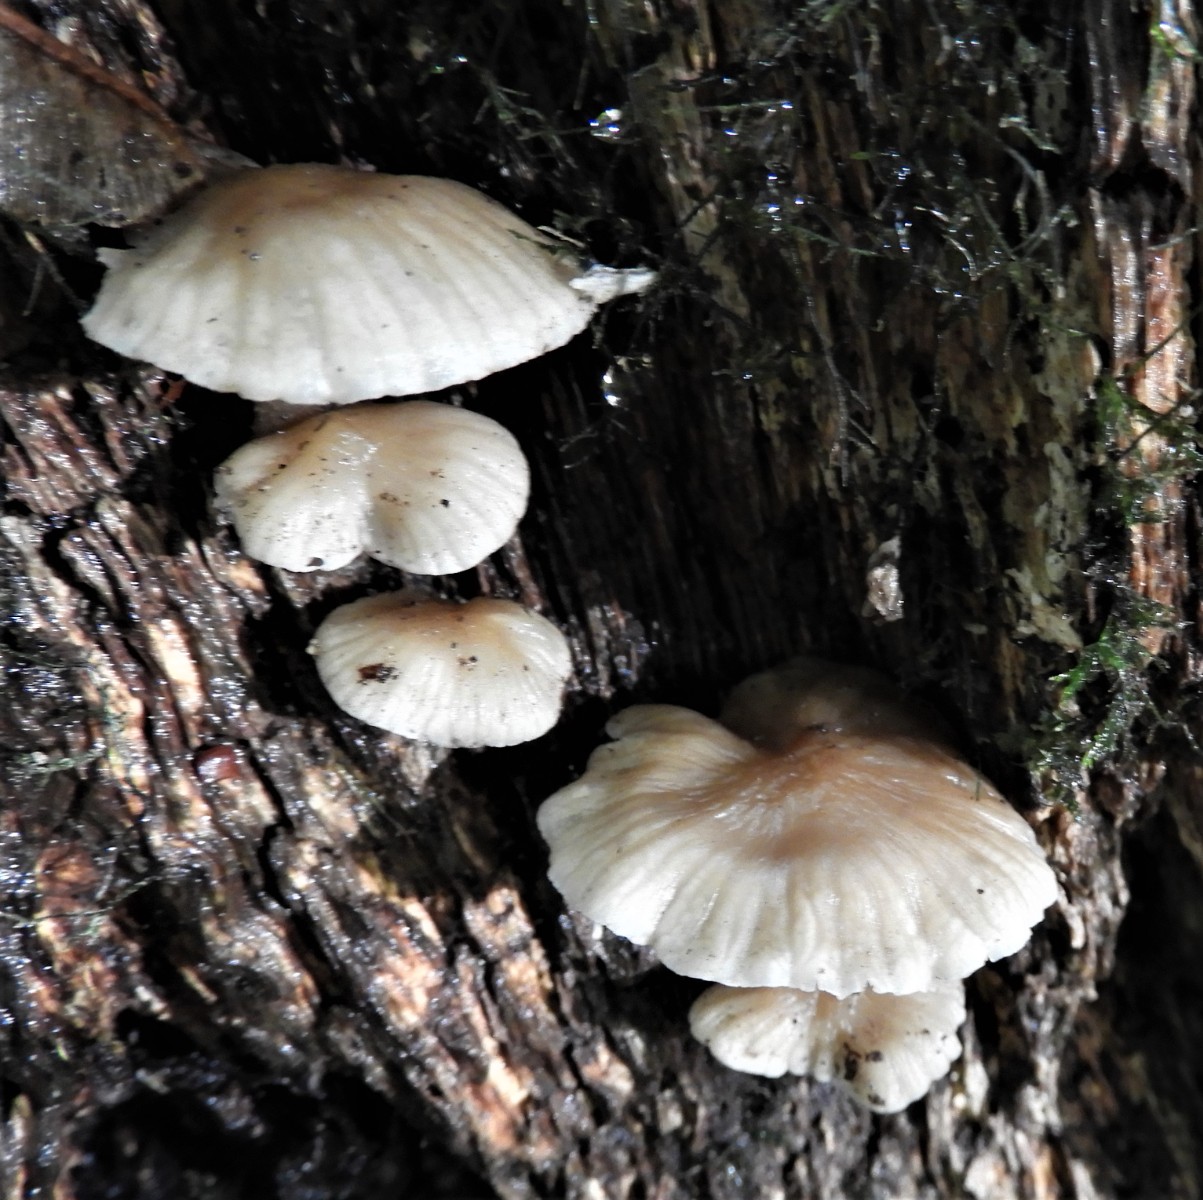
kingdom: Fungi
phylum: Basidiomycota
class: Agaricomycetes
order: Agaricales
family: Mycenaceae
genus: Mycena
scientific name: Mycena galericulata
